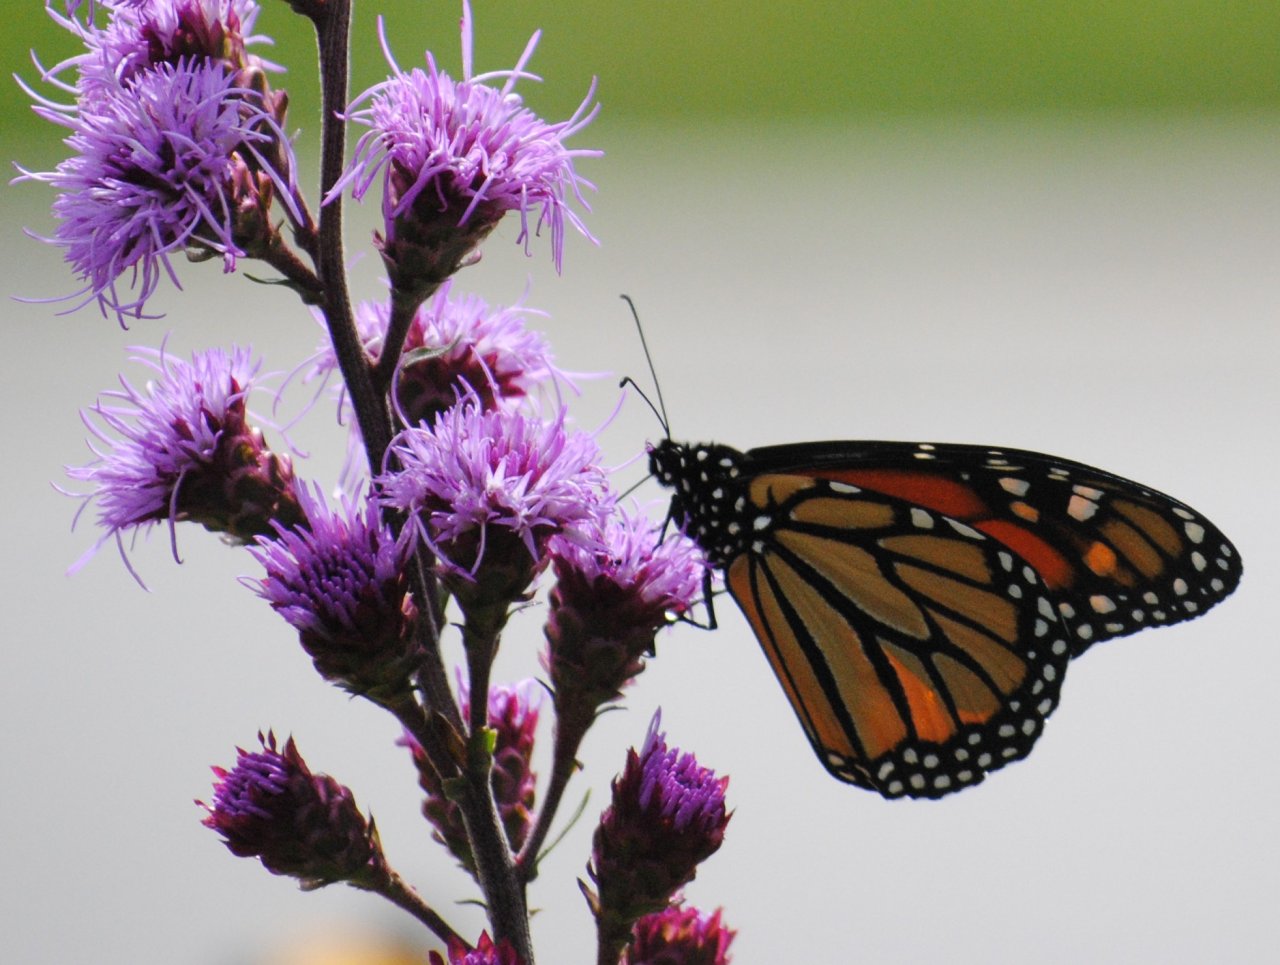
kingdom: Animalia
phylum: Arthropoda
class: Insecta
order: Lepidoptera
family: Nymphalidae
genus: Danaus
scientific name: Danaus plexippus
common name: Monarch
